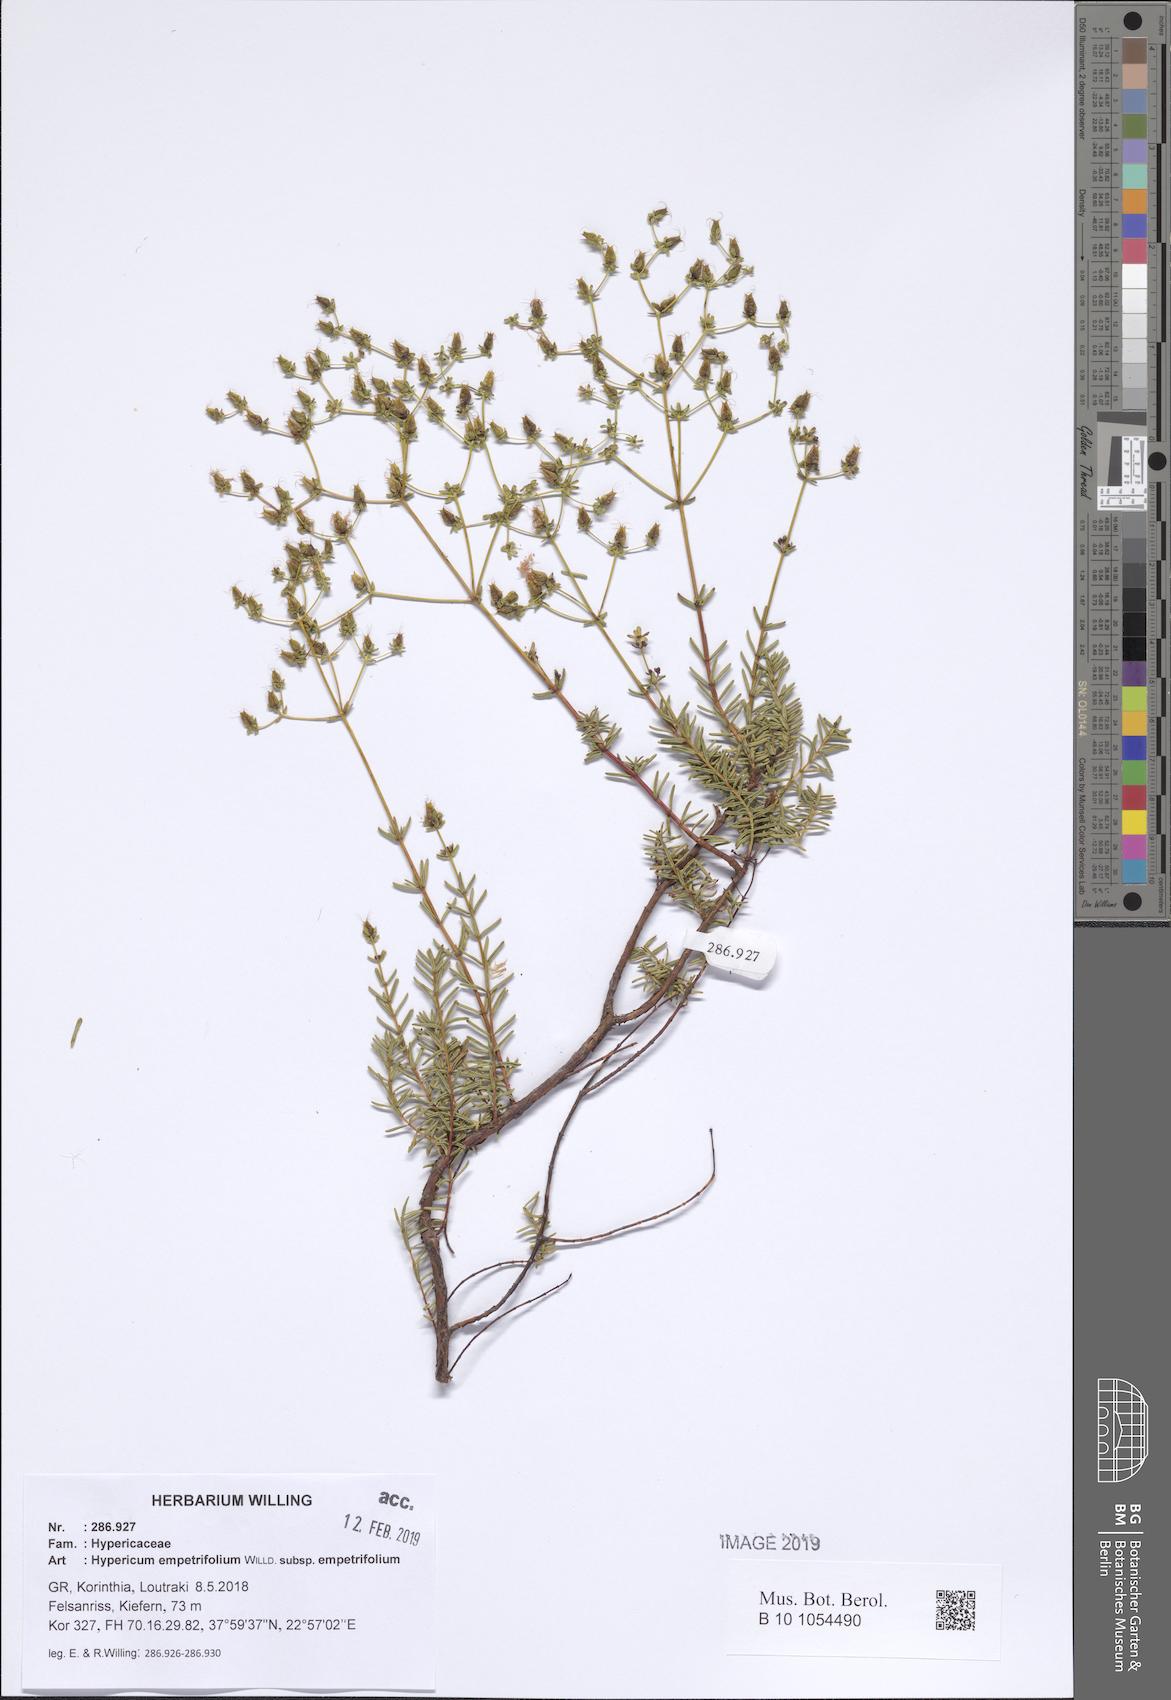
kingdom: Plantae
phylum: Tracheophyta
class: Magnoliopsida
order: Malpighiales
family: Hypericaceae
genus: Hypericum
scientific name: Hypericum empetrifolium
